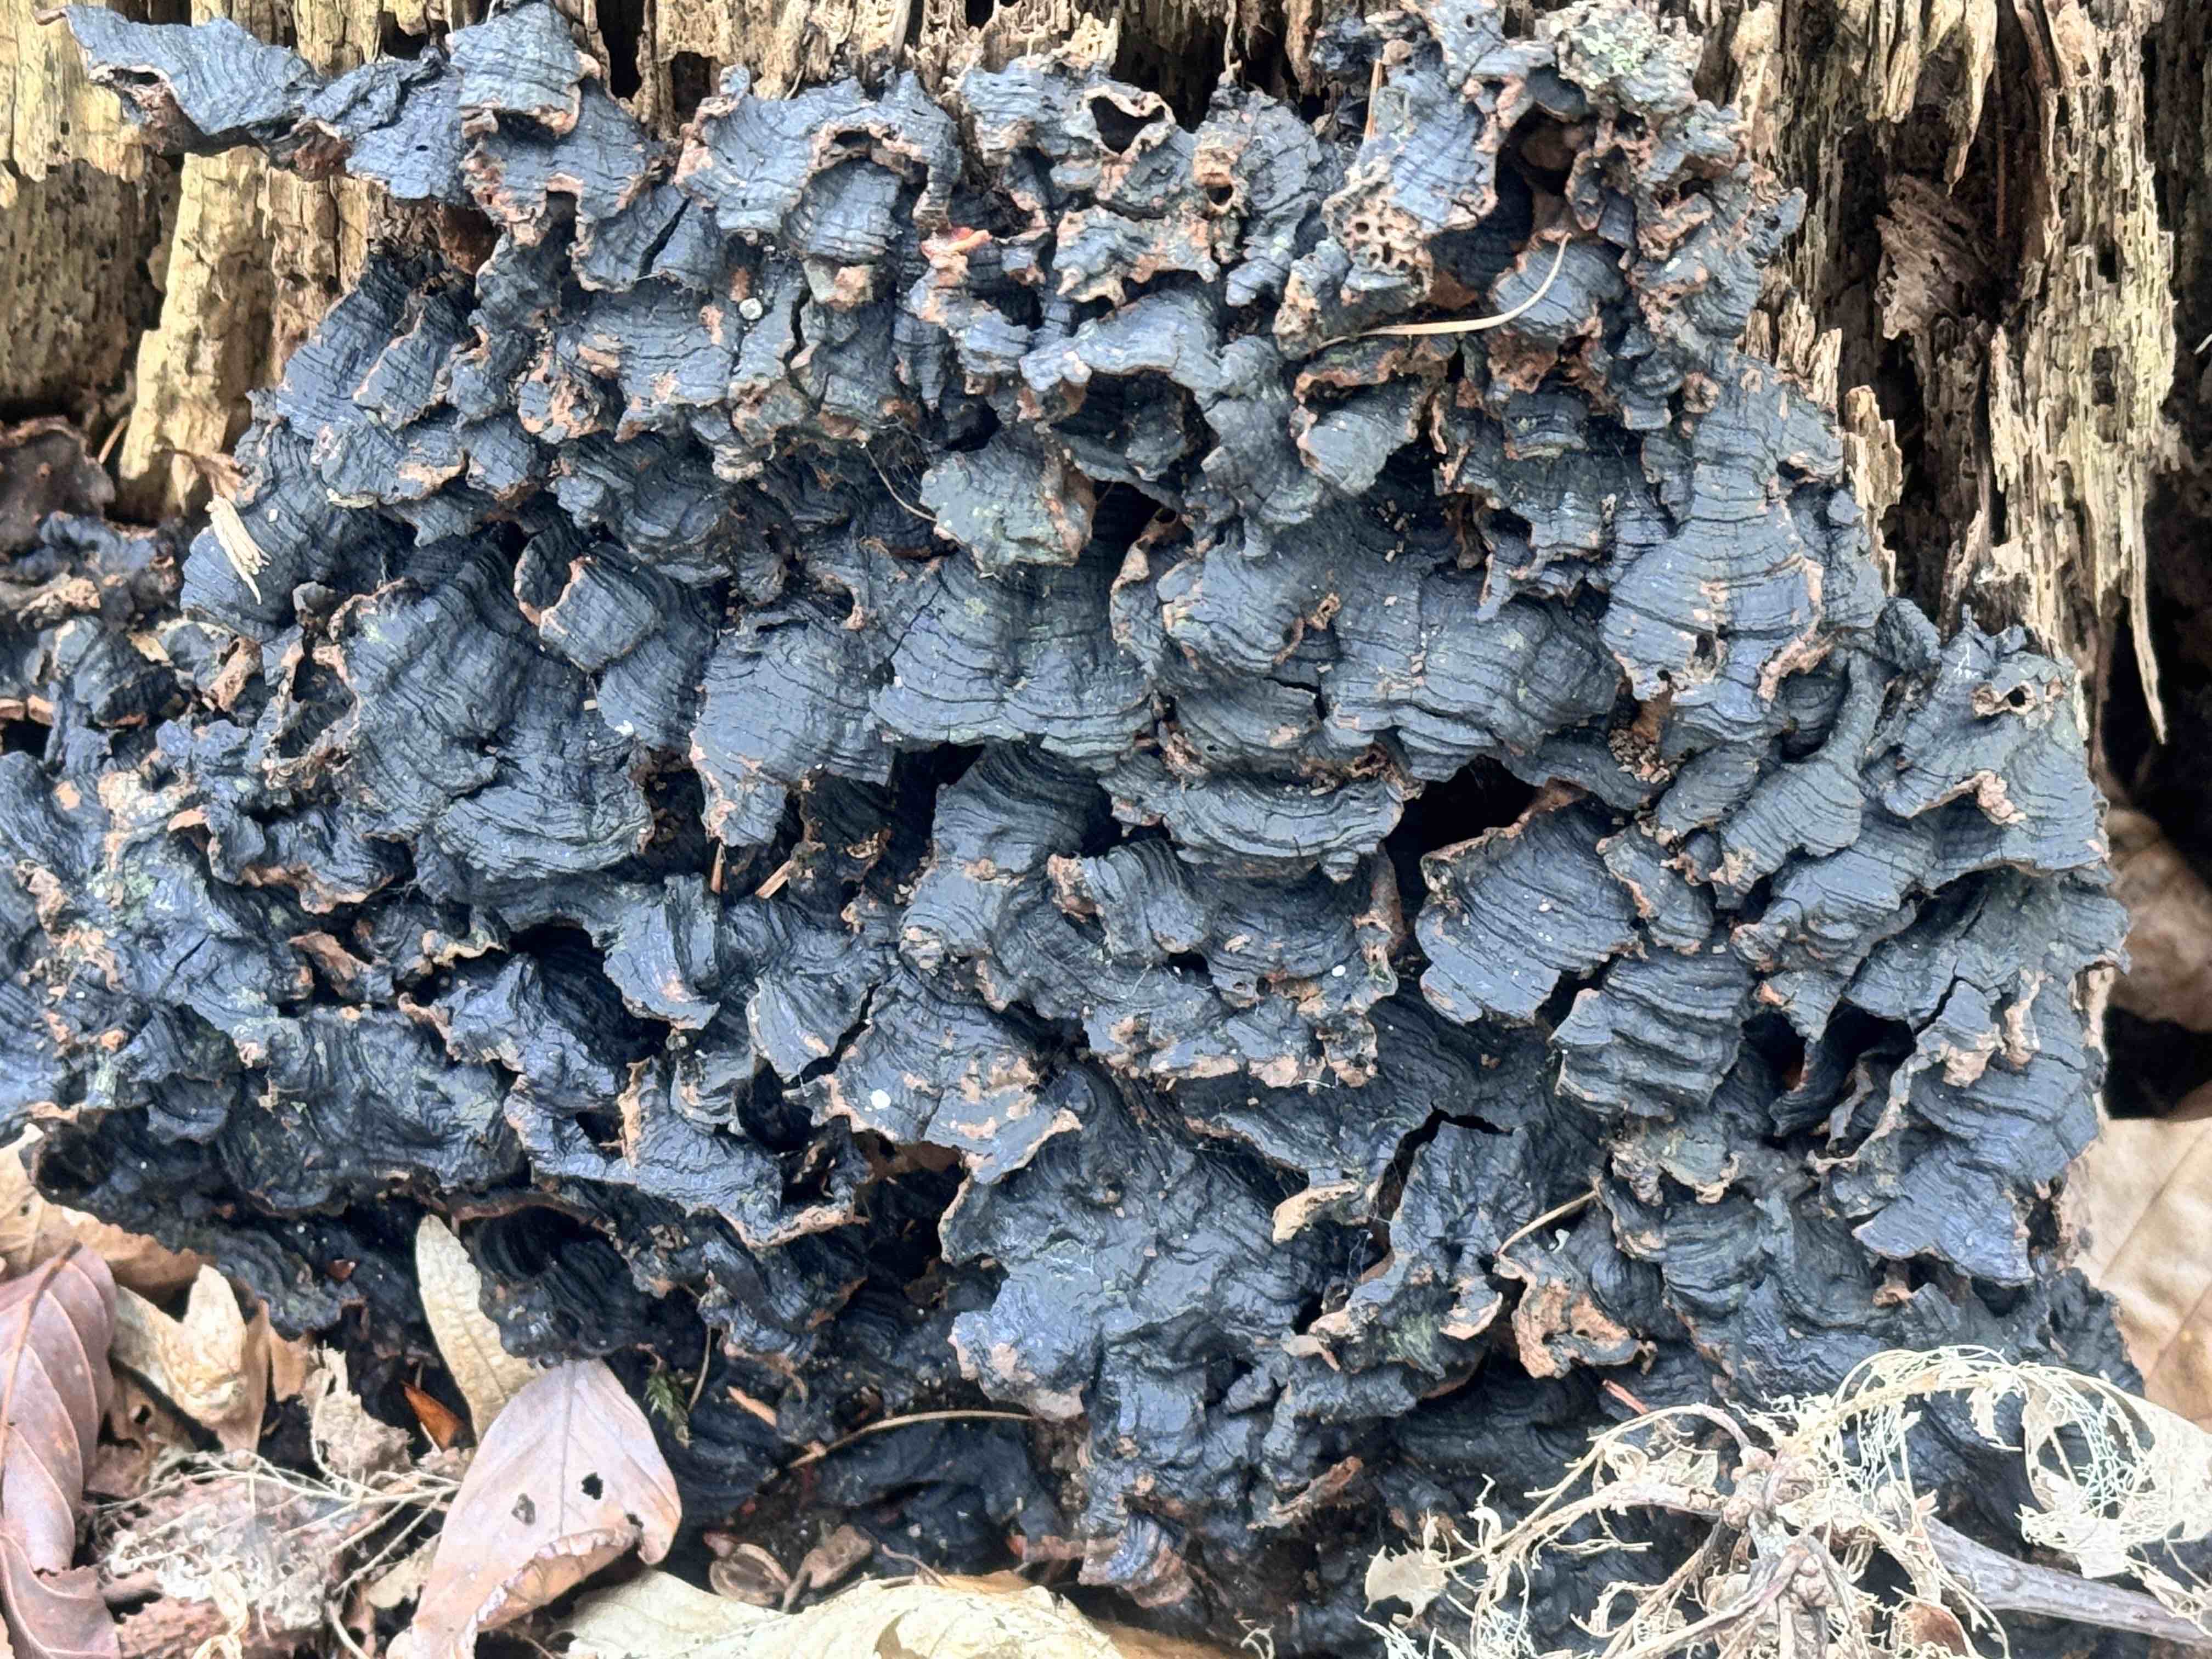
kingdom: Fungi
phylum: Basidiomycota
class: Agaricomycetes
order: Hymenochaetales
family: Hymenochaetaceae
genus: Hymenochaete
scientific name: Hymenochaete rubiginosa
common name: stiv ruslædersvamp
